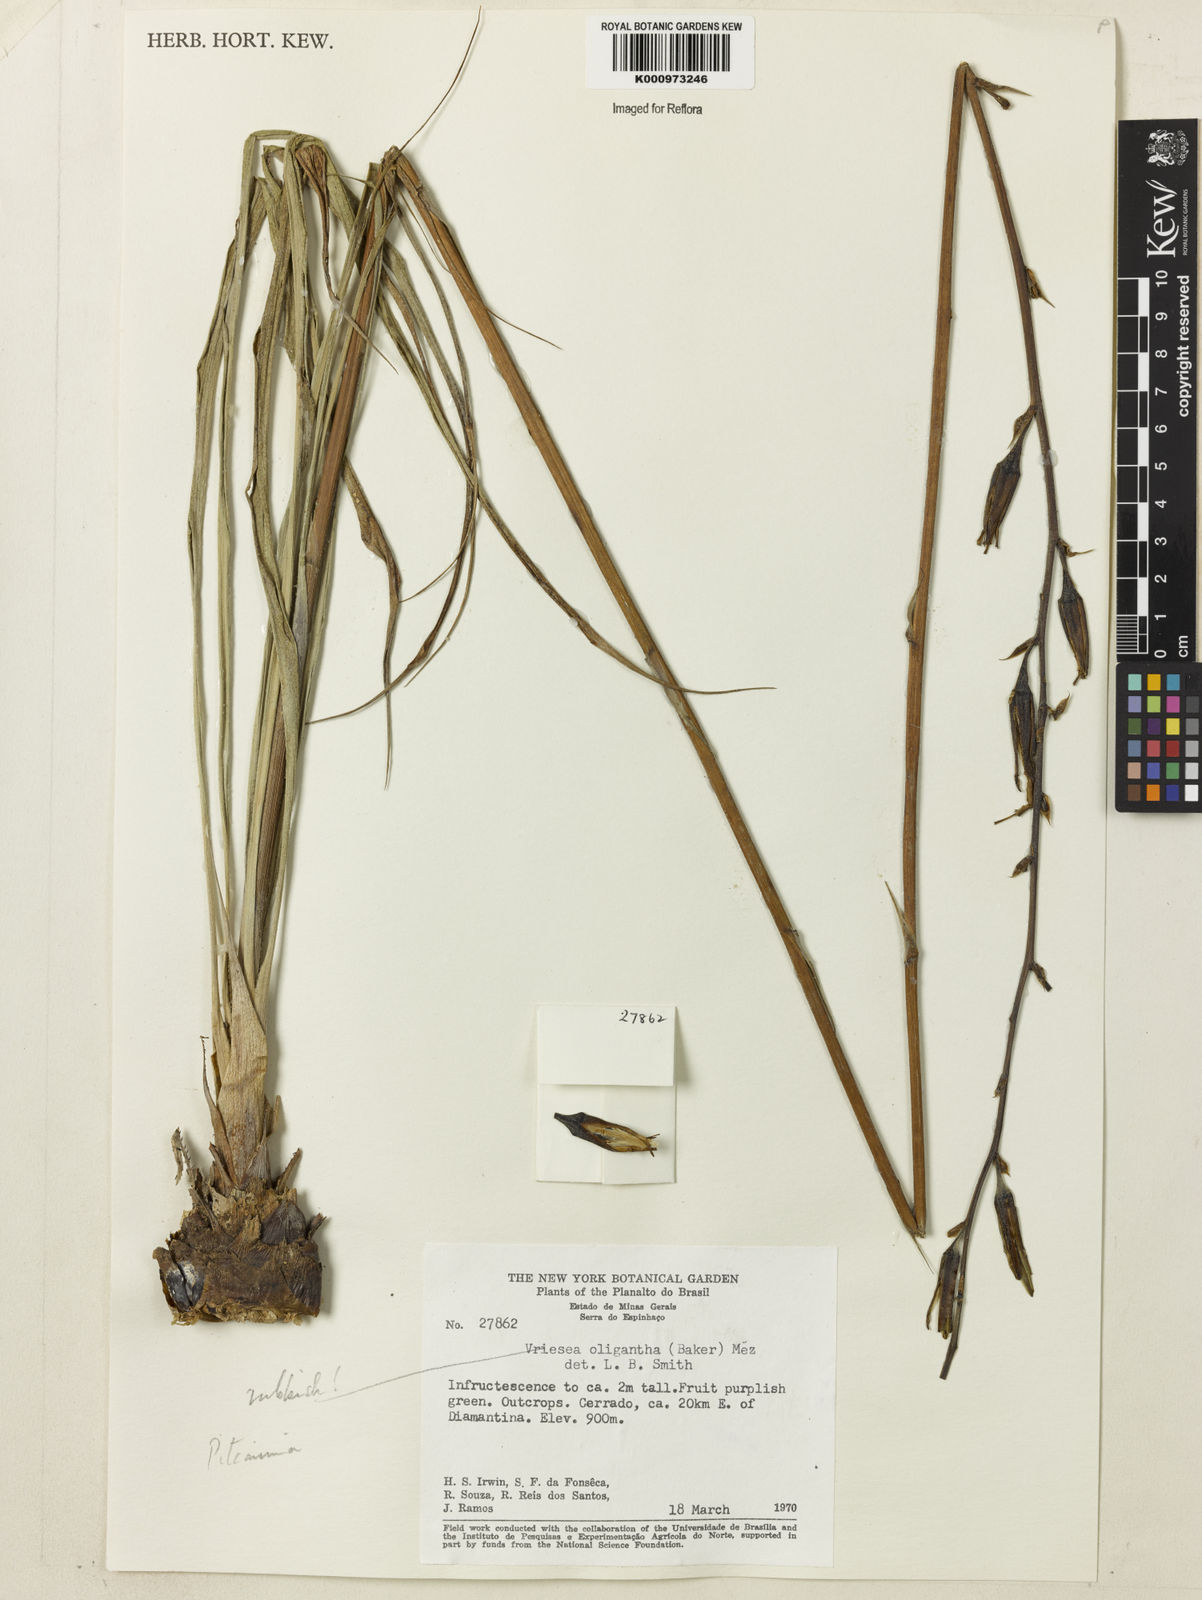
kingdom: Plantae
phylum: Tracheophyta
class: Liliopsida
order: Poales
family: Bromeliaceae
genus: Pitcairnia
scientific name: Pitcairnia
